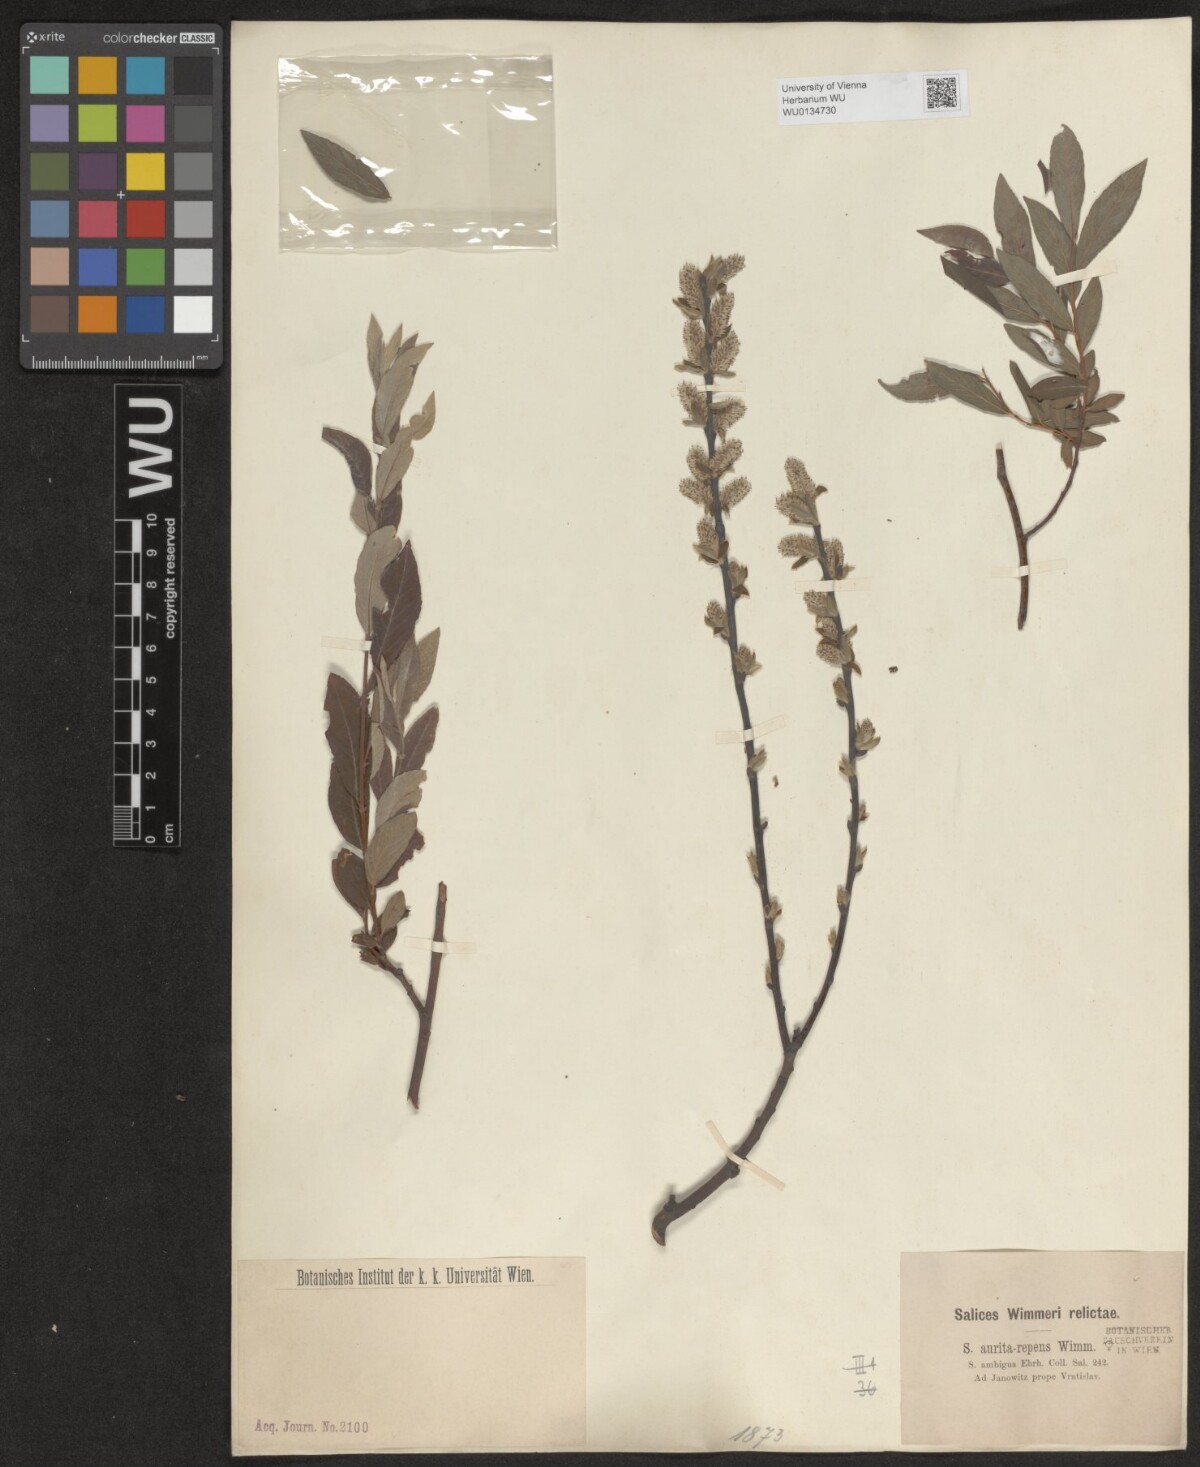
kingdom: Plantae
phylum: Tracheophyta
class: Magnoliopsida
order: Malpighiales
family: Salicaceae
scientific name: Salicaceae
